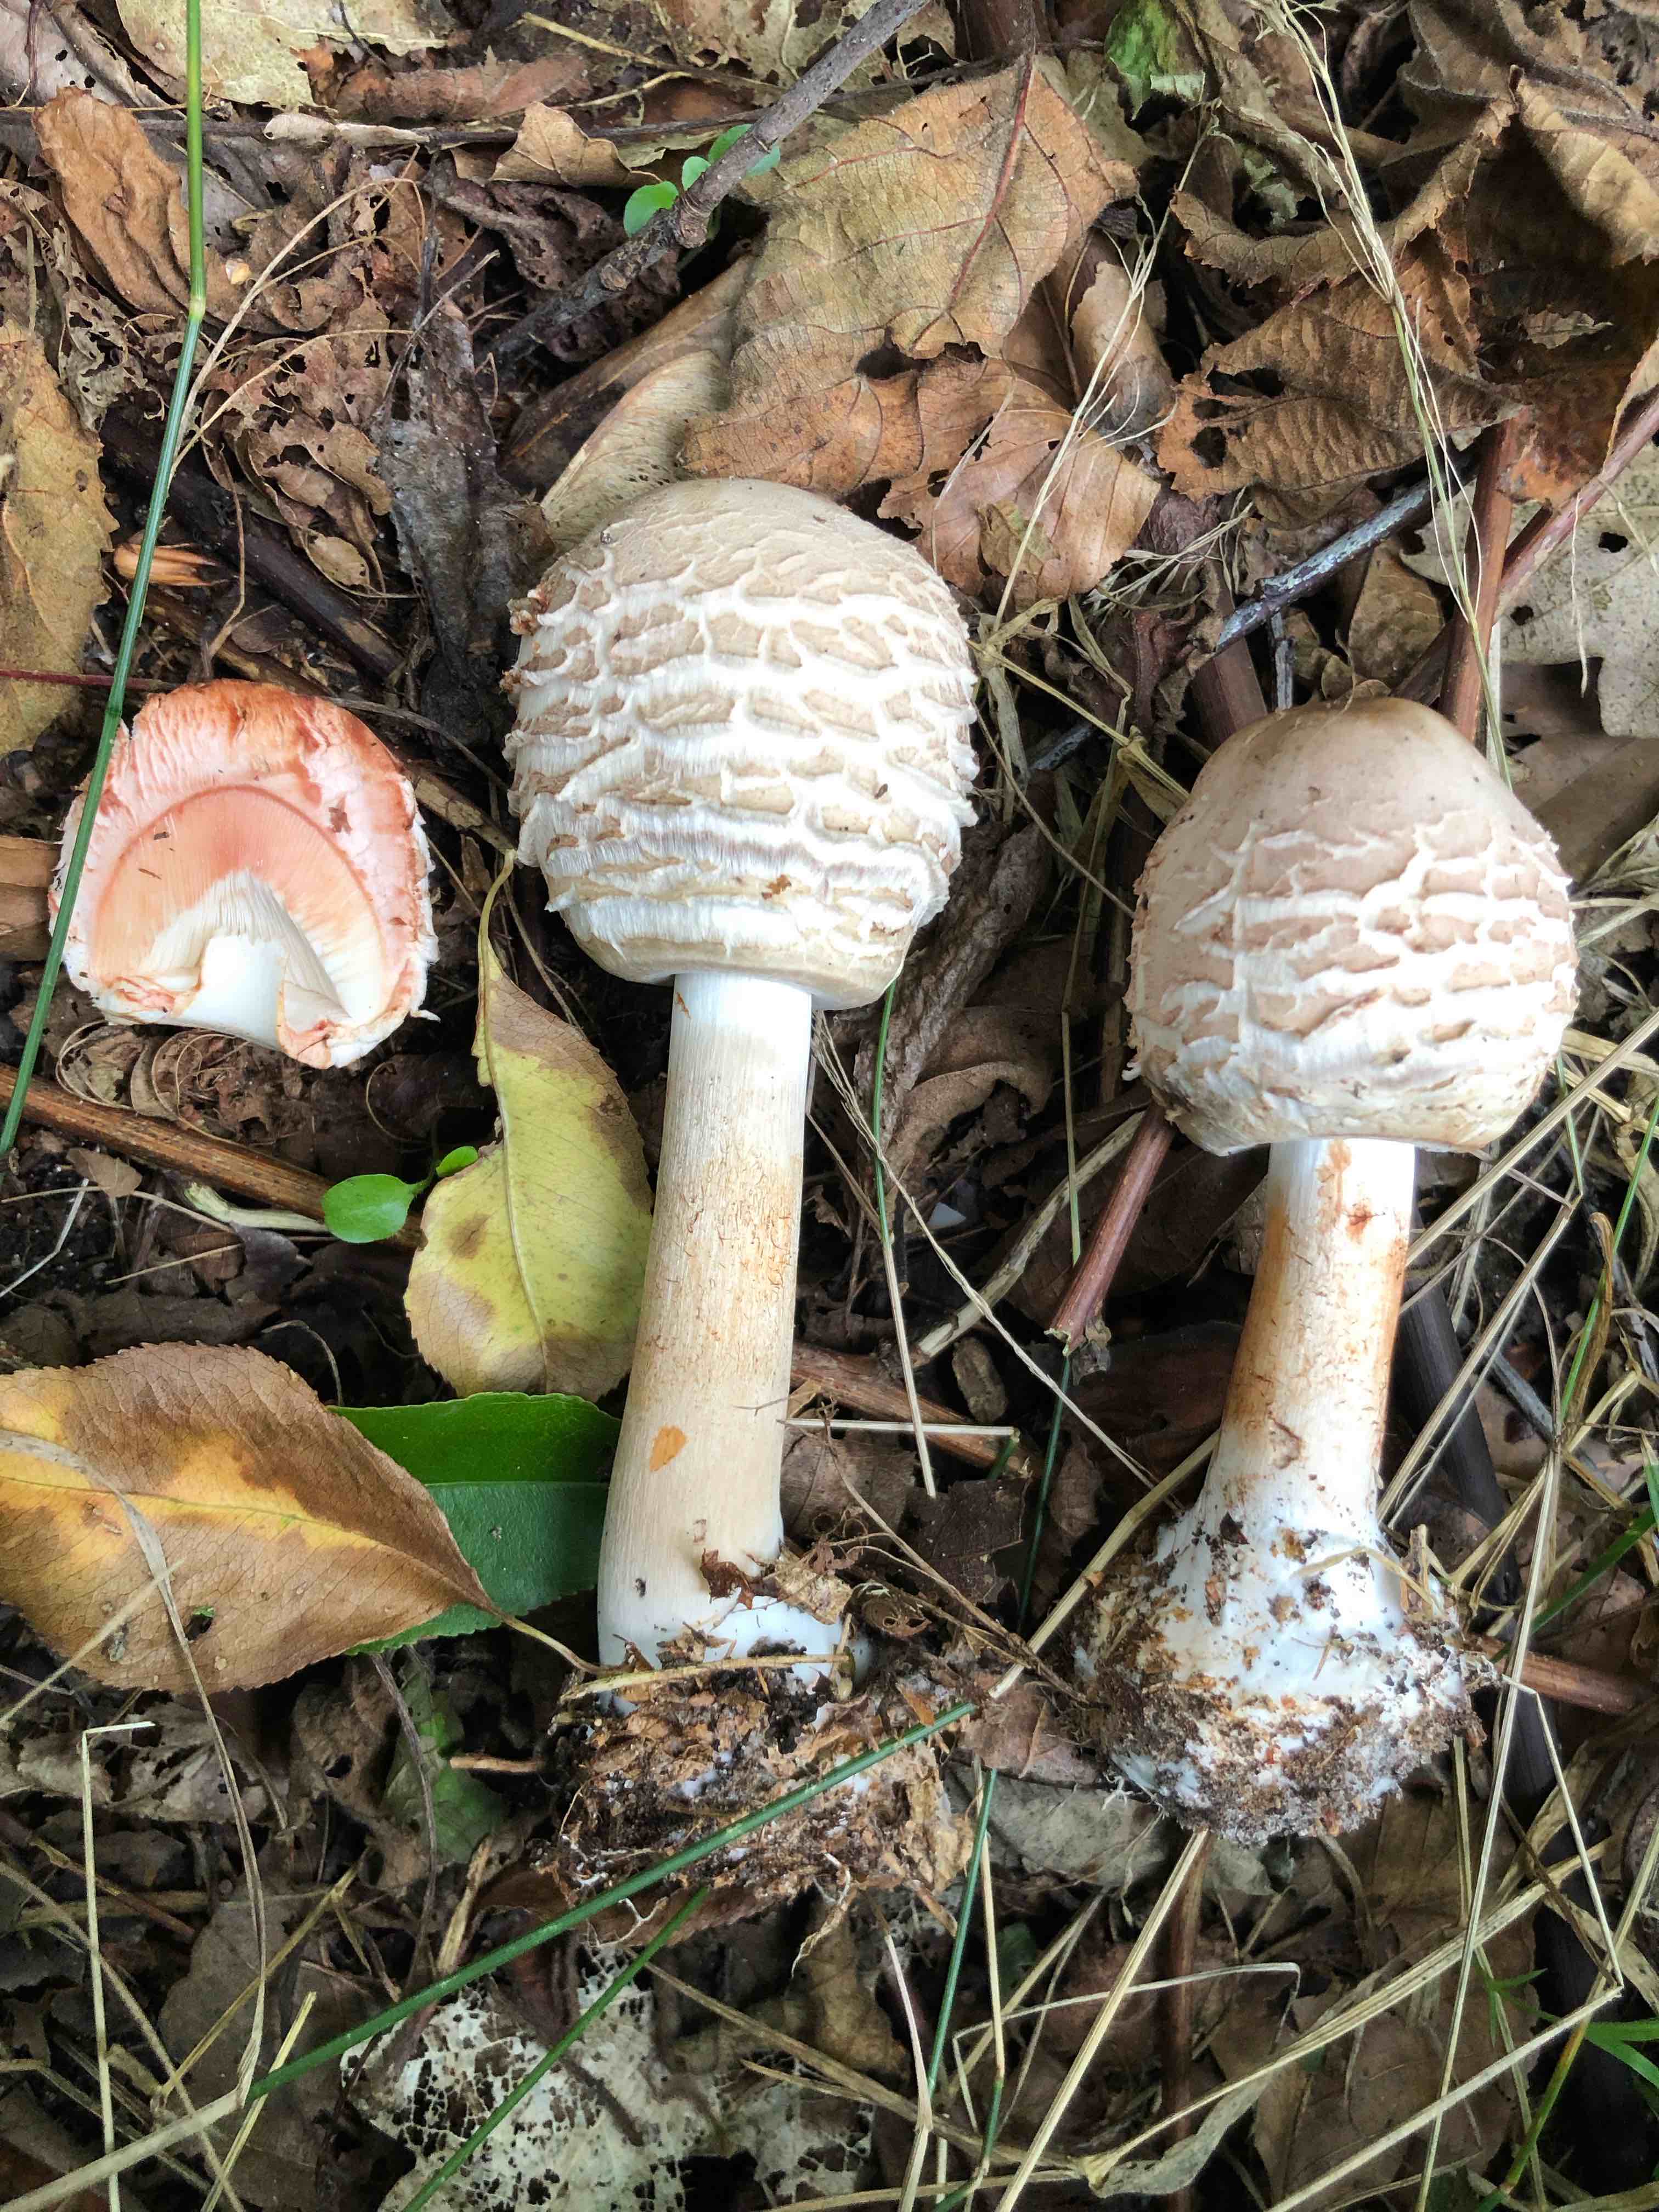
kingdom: Fungi
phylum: Basidiomycota
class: Agaricomycetes
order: Agaricales
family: Agaricaceae
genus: Chlorophyllum
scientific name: Chlorophyllum olivieri
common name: almindelig rabarberhat
